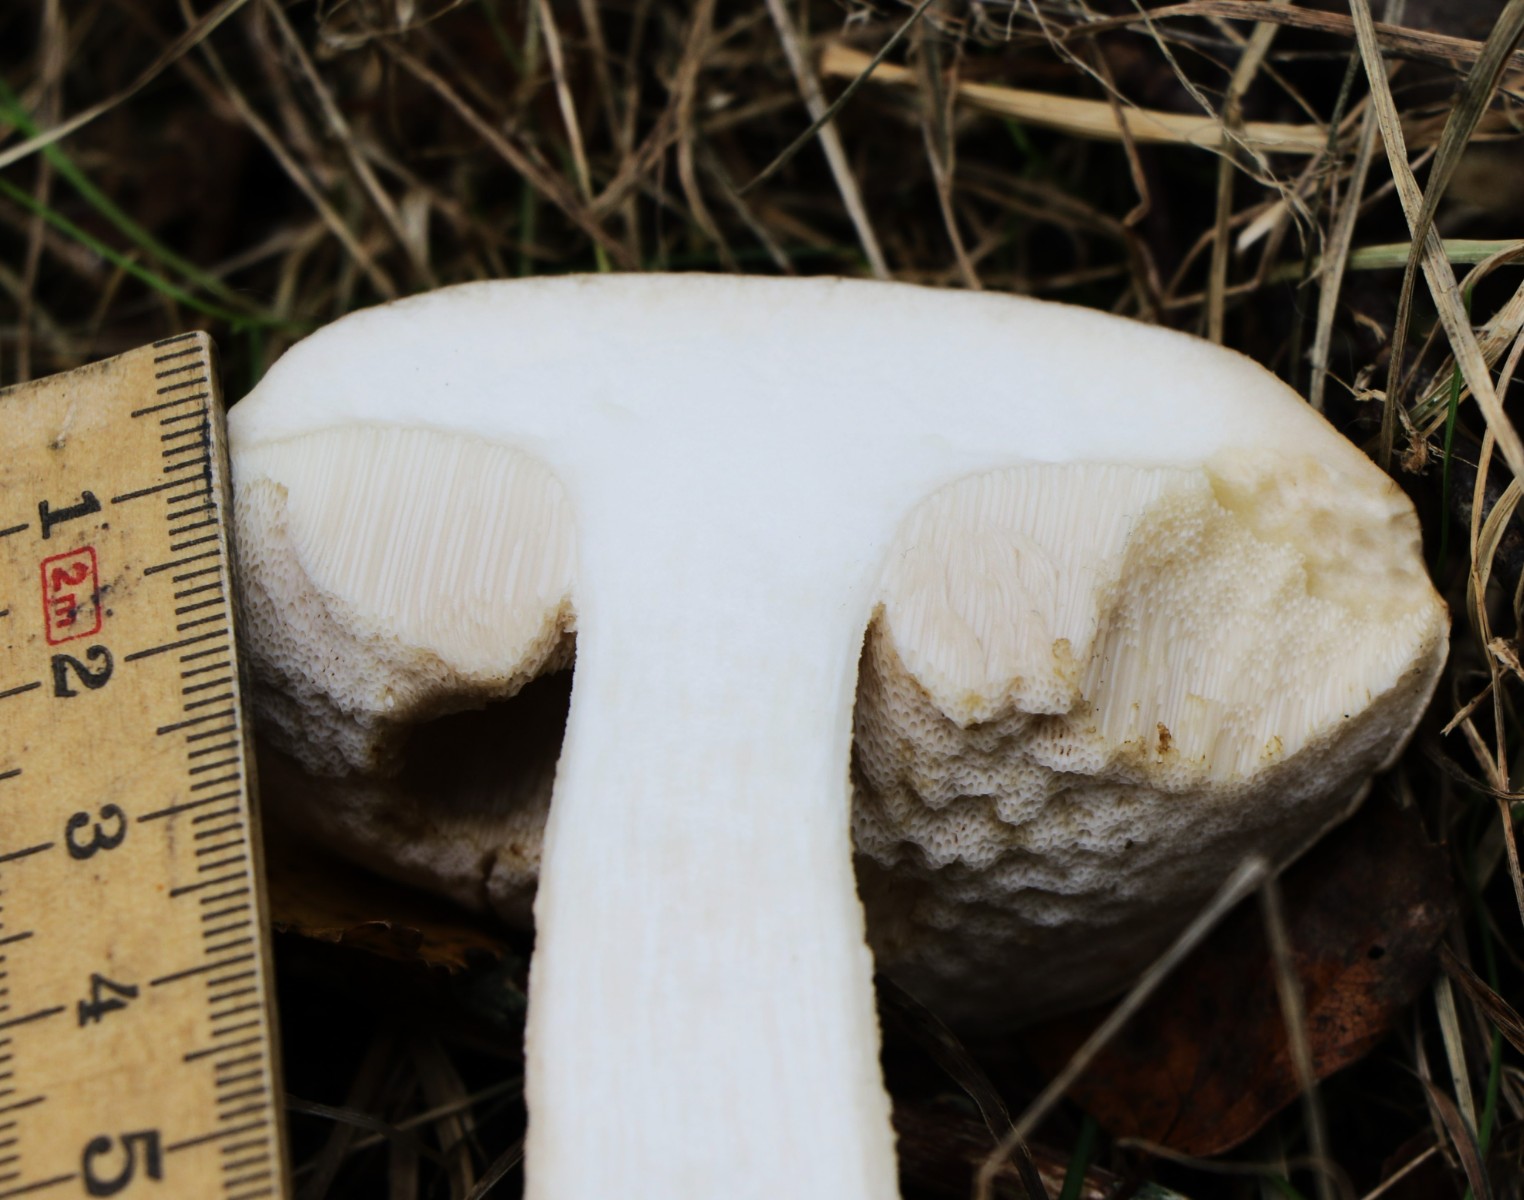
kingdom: Fungi
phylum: Basidiomycota
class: Agaricomycetes
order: Boletales
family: Boletaceae
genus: Leccinum
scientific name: Leccinum
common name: skælrørhat
